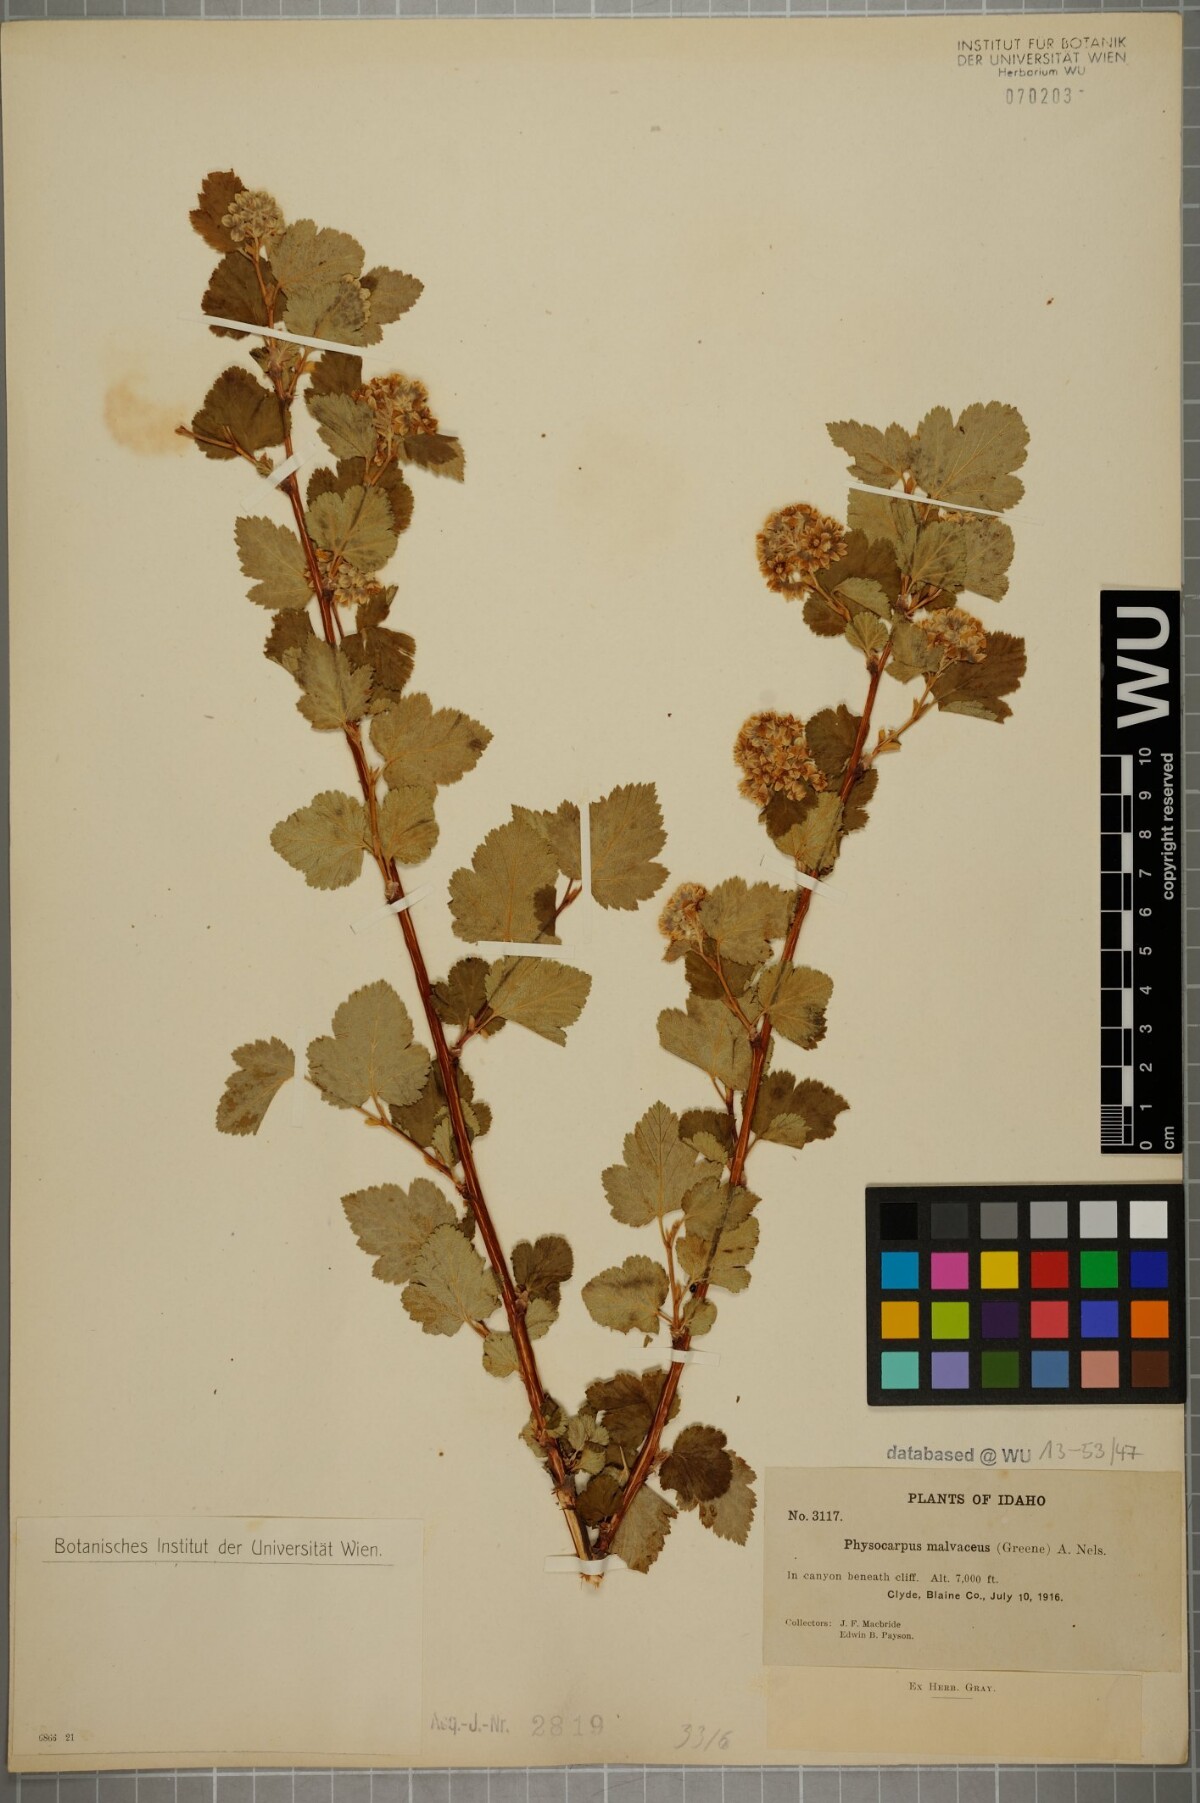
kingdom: Plantae
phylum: Tracheophyta
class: Magnoliopsida
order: Rosales
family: Rosaceae
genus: Physocarpus
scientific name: Physocarpus malvaceus
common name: Mallow ninebark
